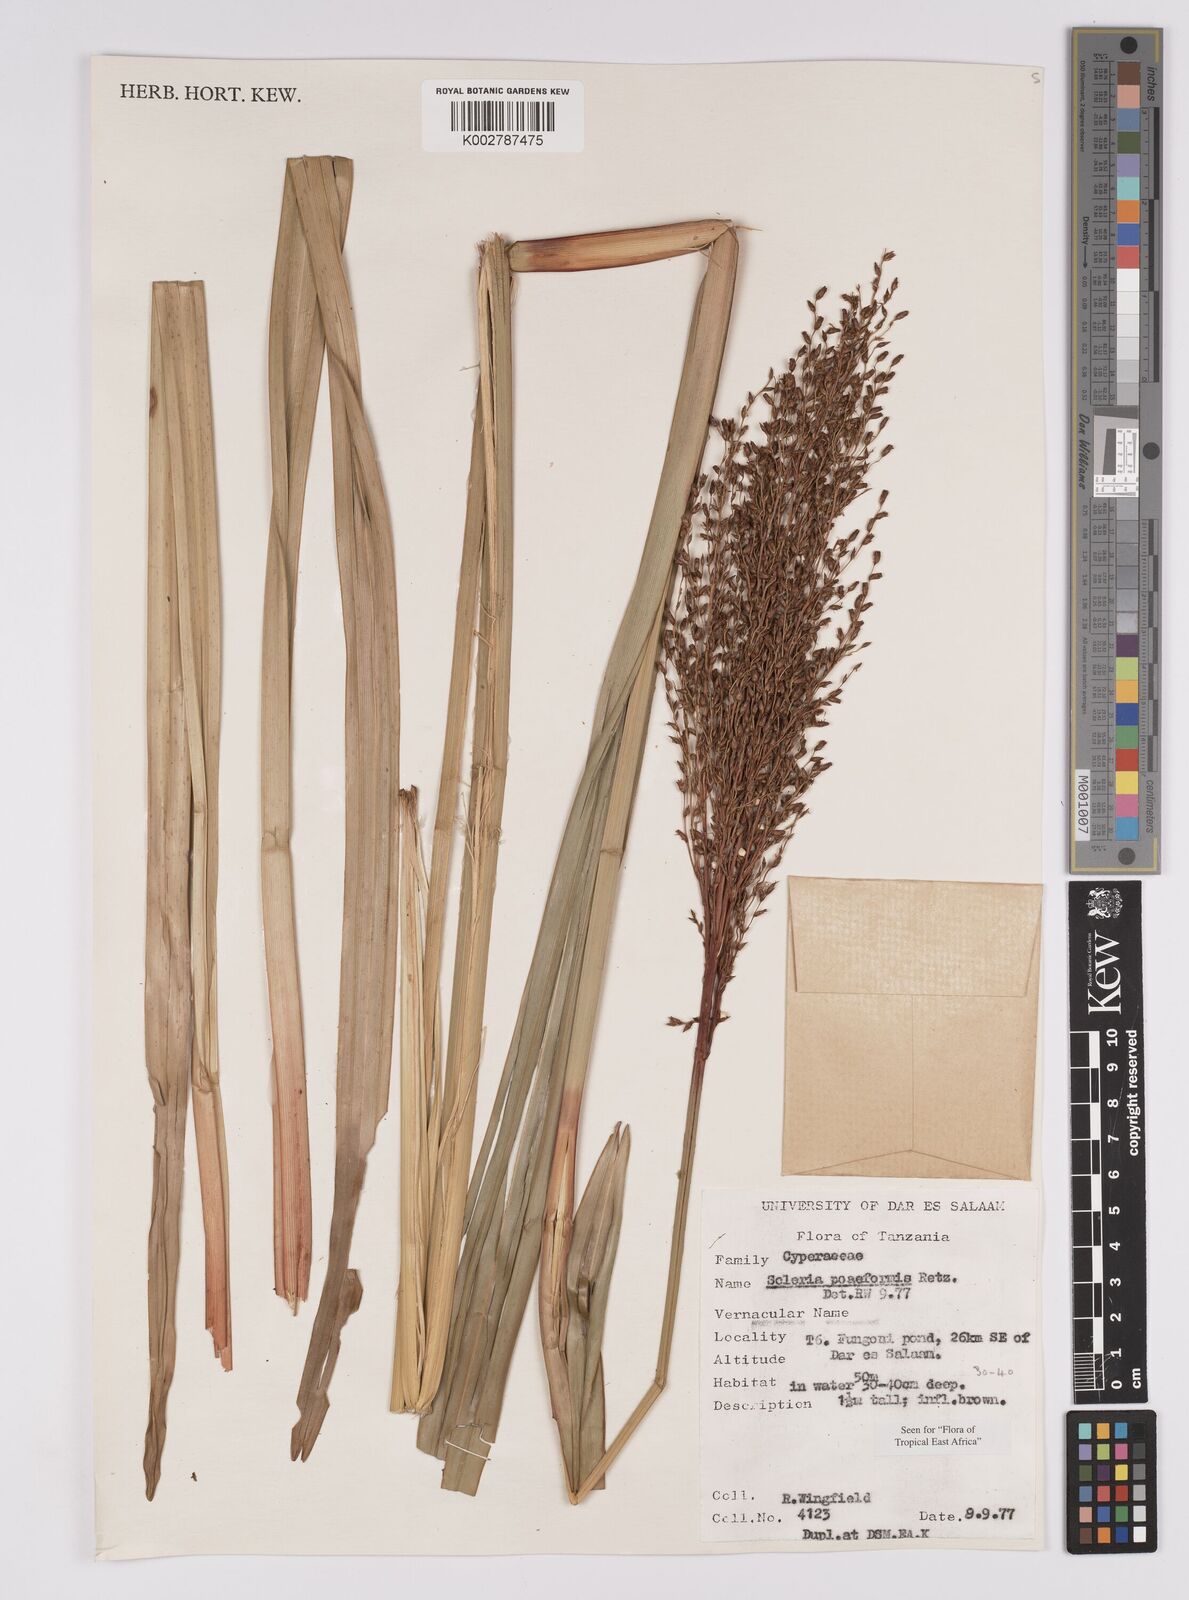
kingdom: Plantae
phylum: Tracheophyta
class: Liliopsida
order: Poales
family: Cyperaceae
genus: Scleria
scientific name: Scleria poiformis
